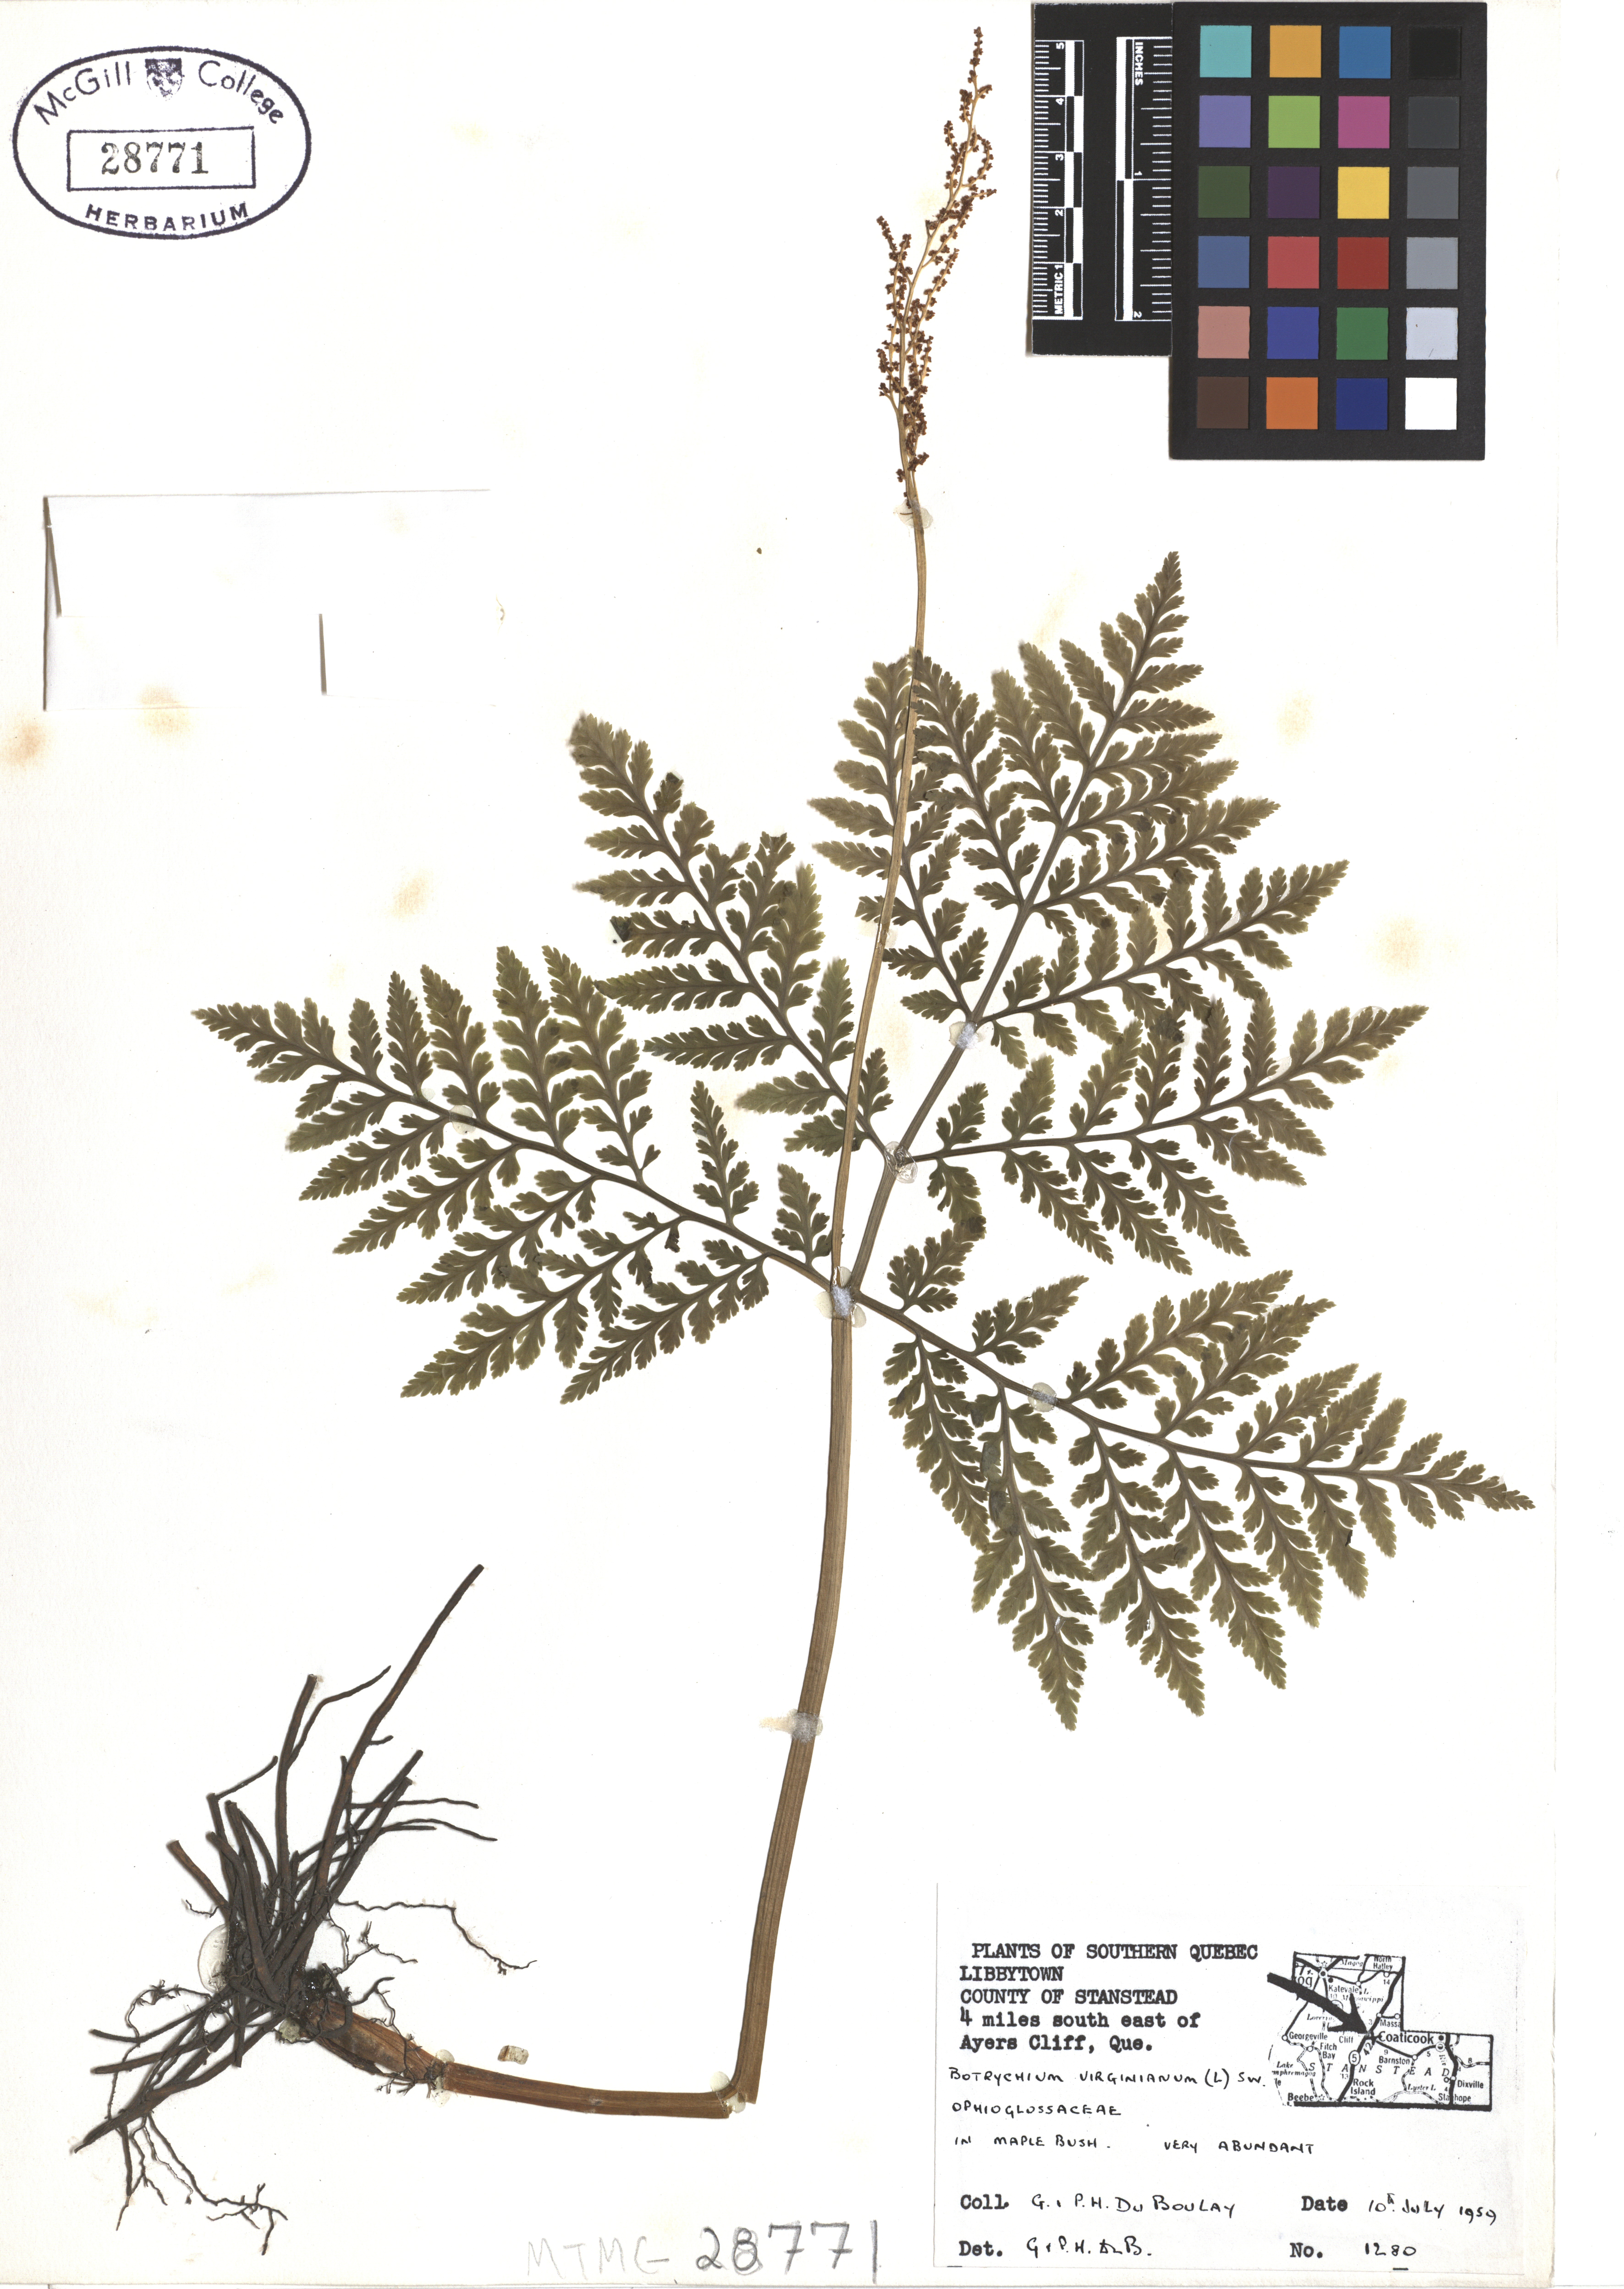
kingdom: Plantae
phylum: Tracheophyta
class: Polypodiopsida
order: Ophioglossales
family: Ophioglossaceae
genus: Botrypus
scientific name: Botrypus virginianus
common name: Common grapefern
